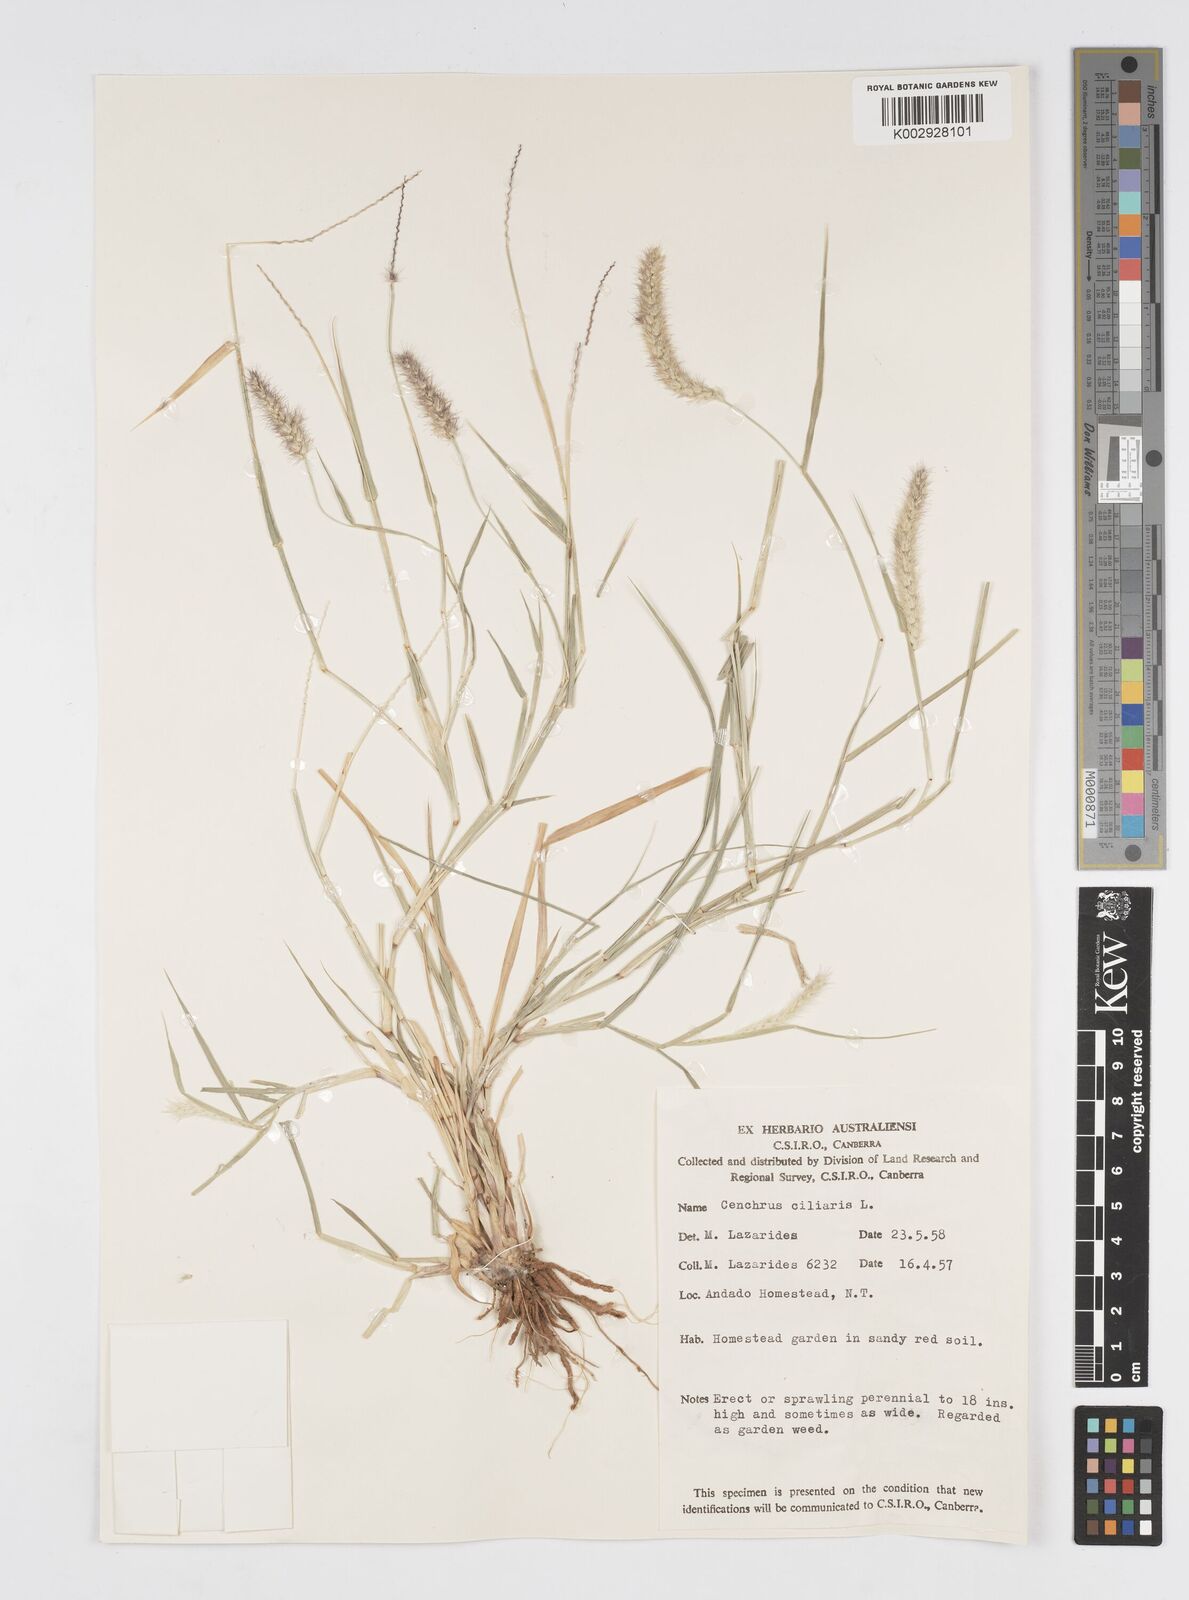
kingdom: Plantae
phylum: Tracheophyta
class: Liliopsida
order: Poales
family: Poaceae
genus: Cenchrus
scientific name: Cenchrus ciliaris
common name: Buffelgrass
